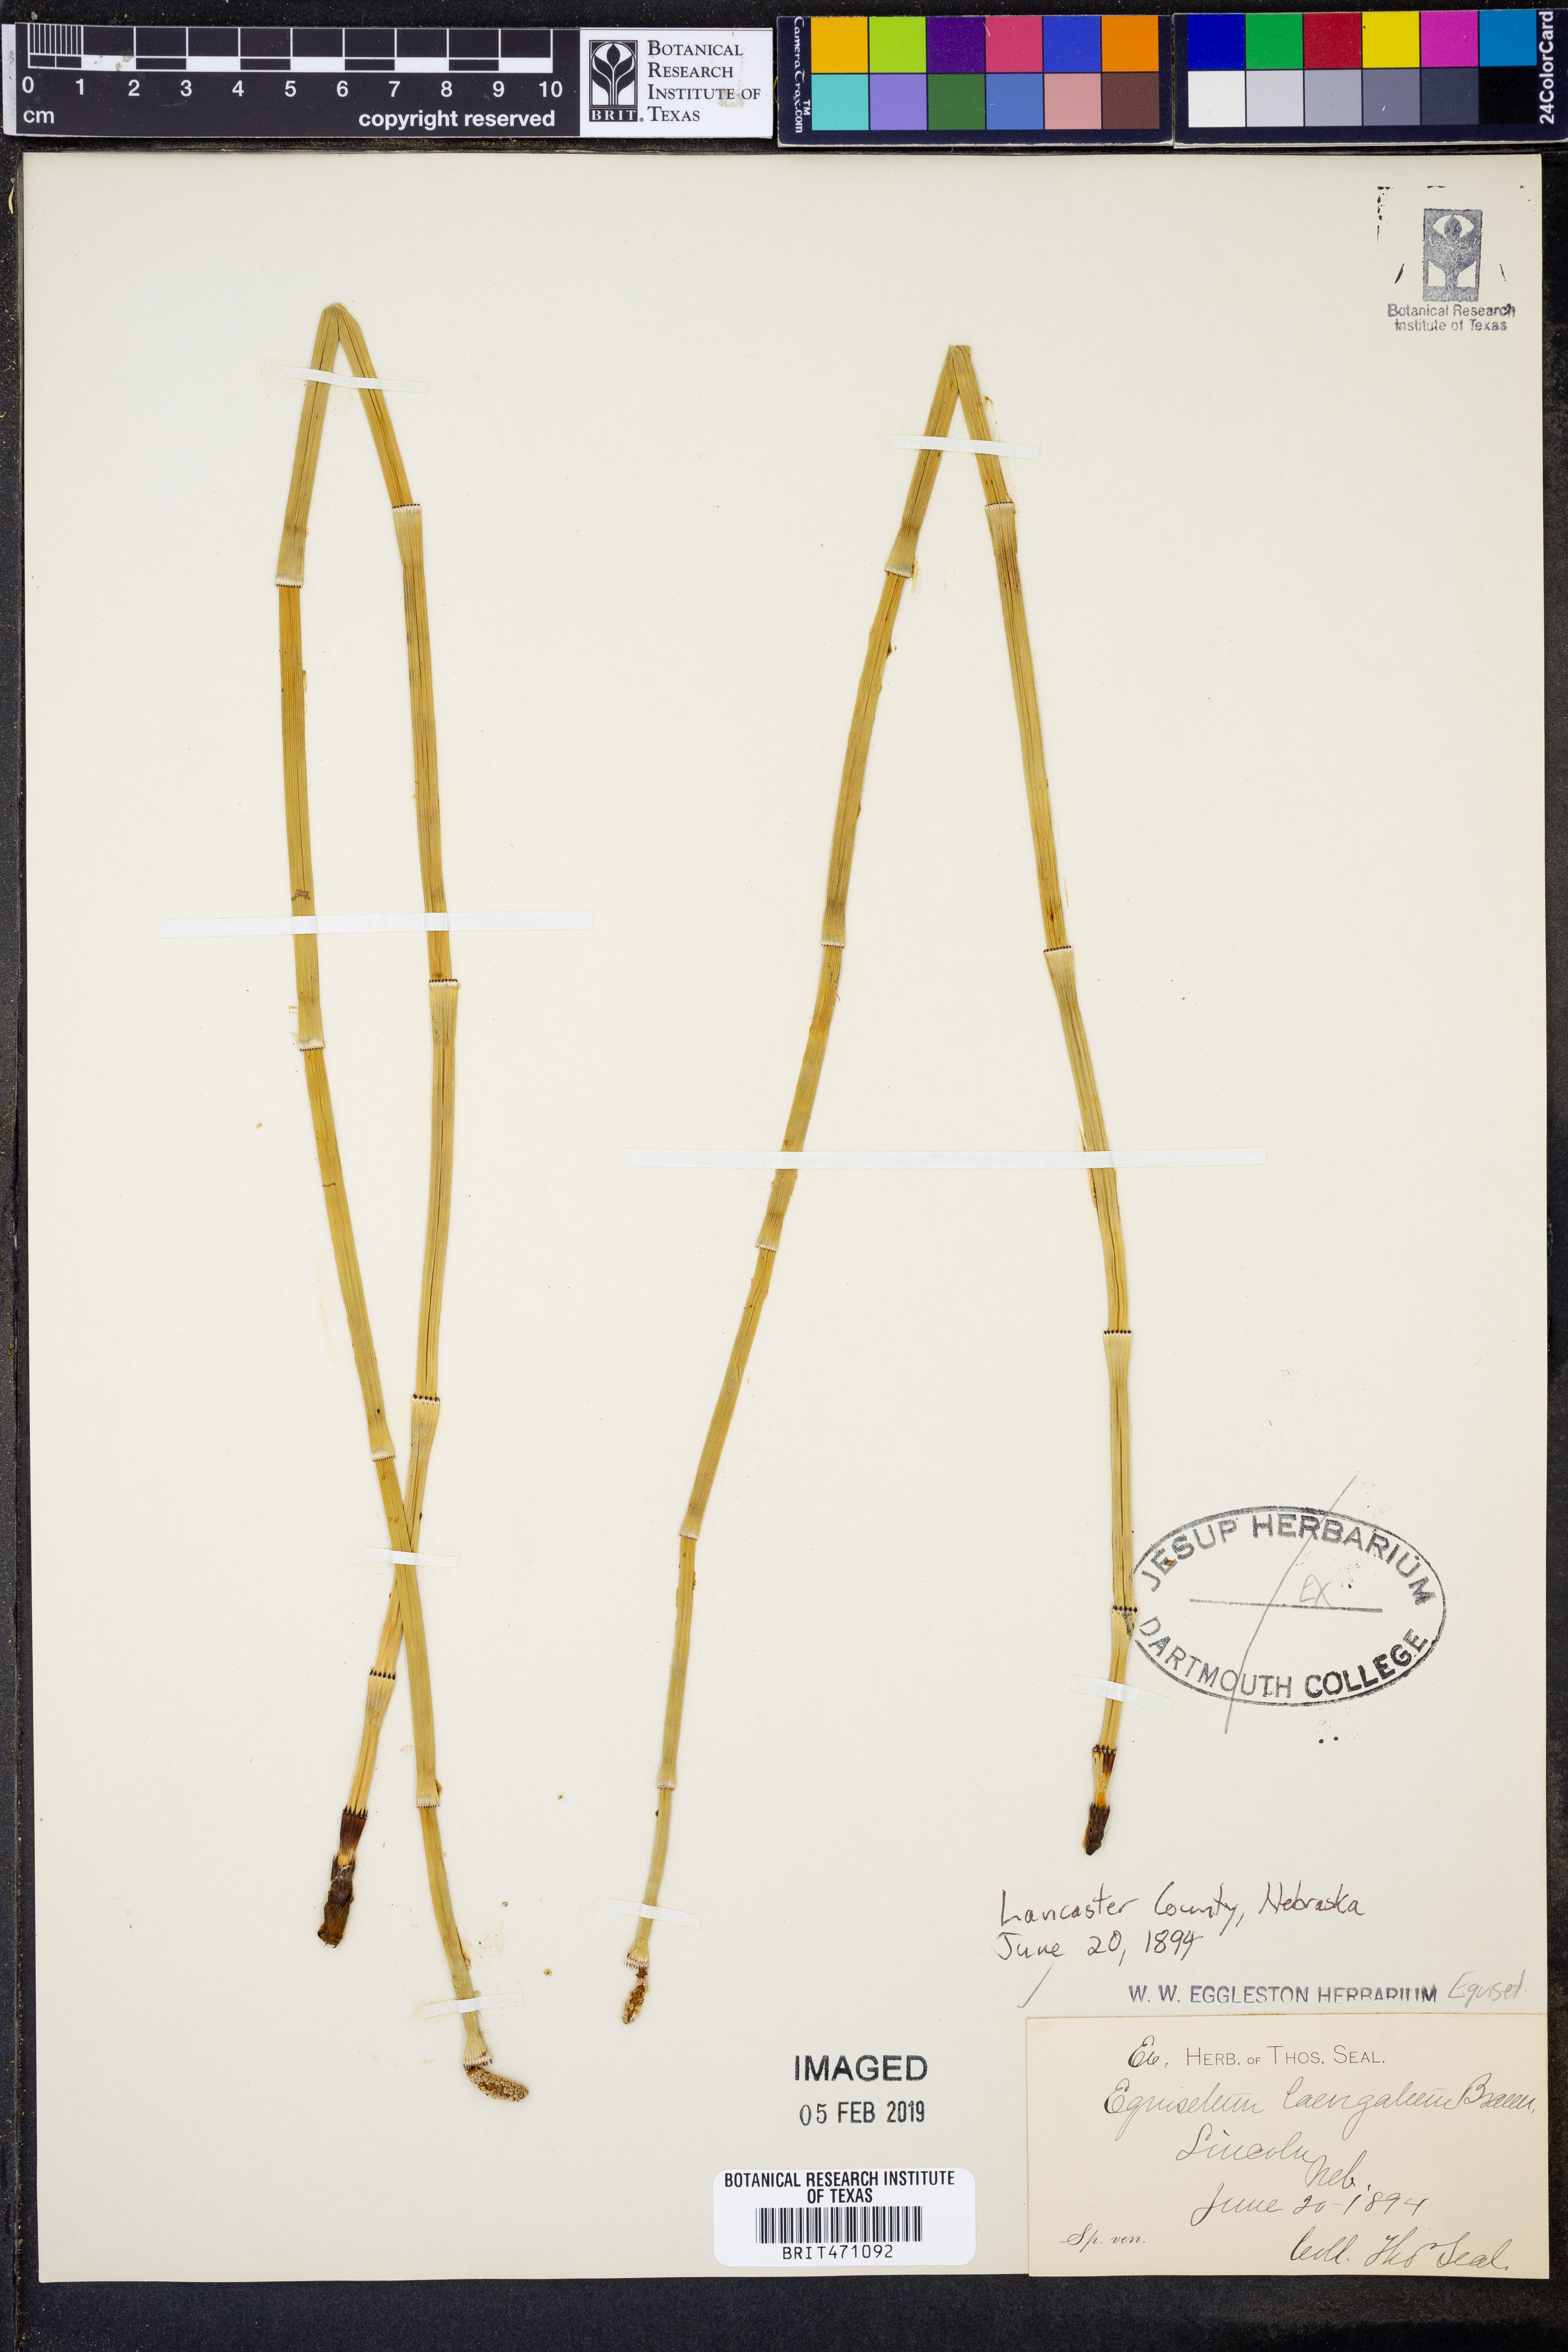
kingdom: Plantae
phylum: Tracheophyta
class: Polypodiopsida
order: Equisetales
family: Equisetaceae
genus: Equisetum
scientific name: Equisetum laevigatum
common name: Smooth scouring-rush
